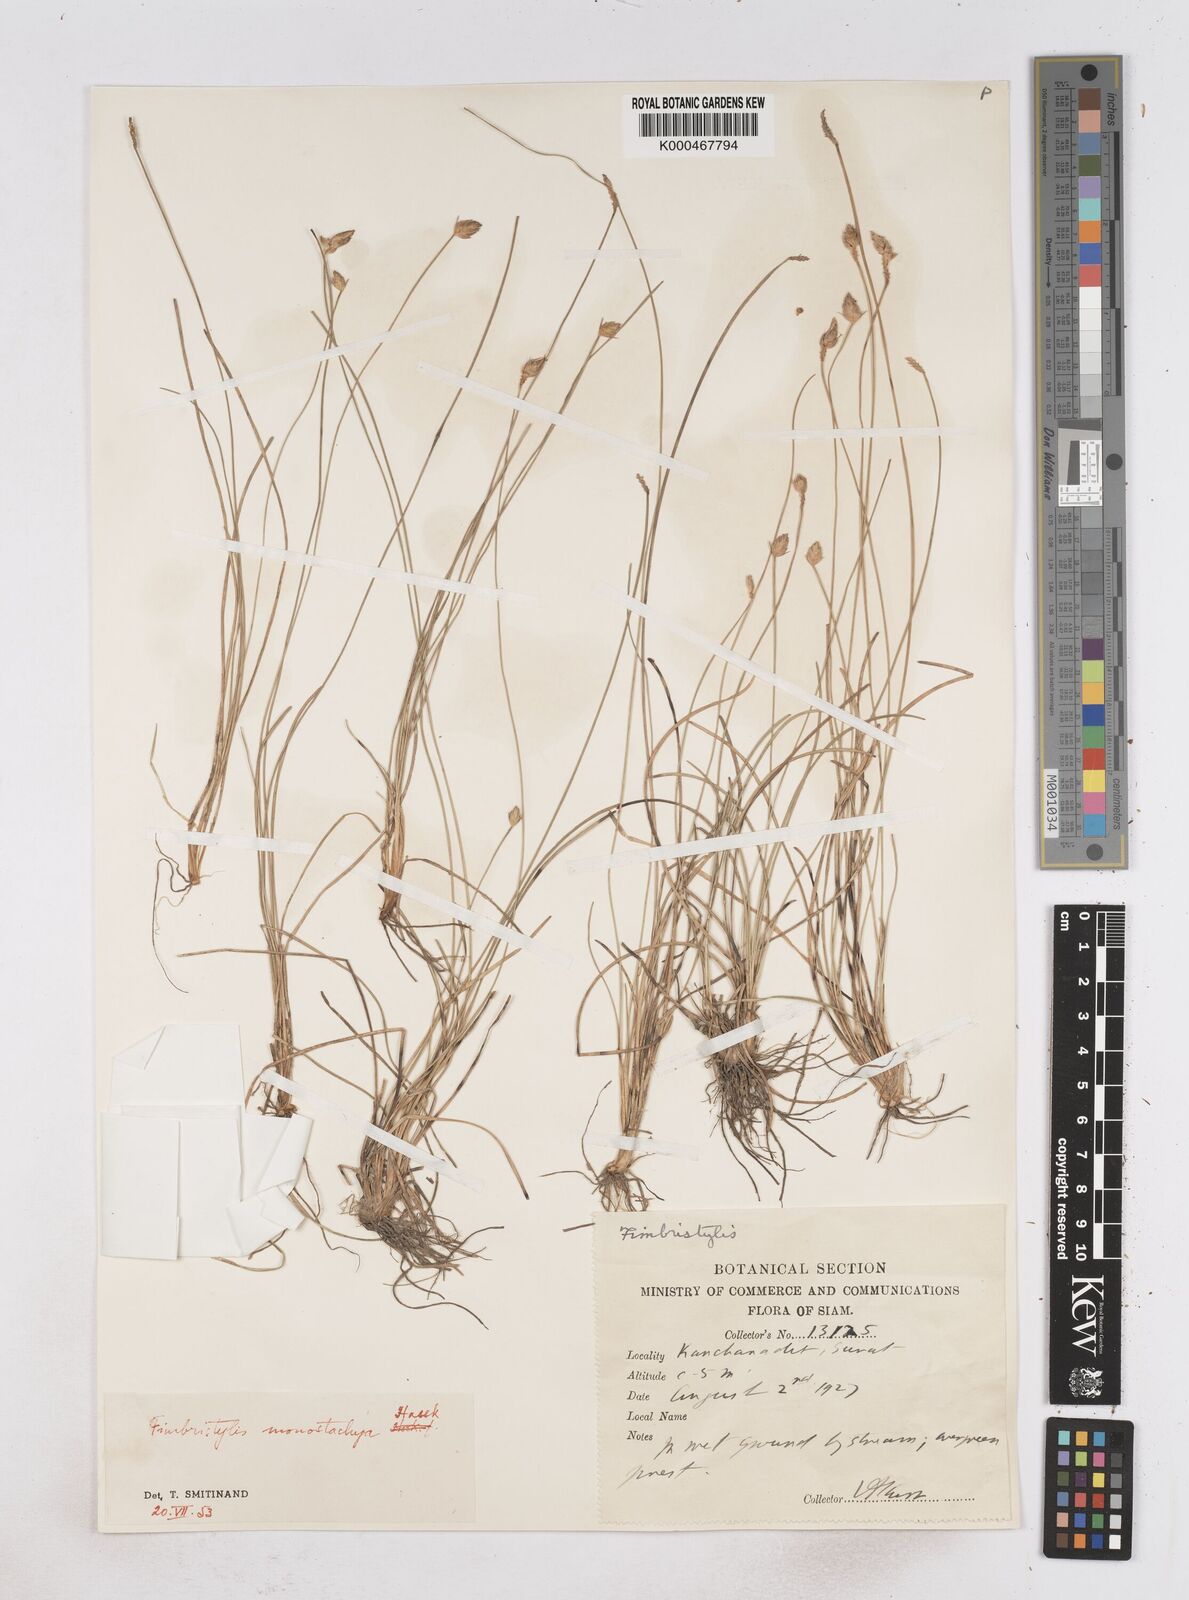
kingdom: Plantae
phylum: Tracheophyta
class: Liliopsida
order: Poales
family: Cyperaceae
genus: Abildgaardia
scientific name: Abildgaardia ovata
